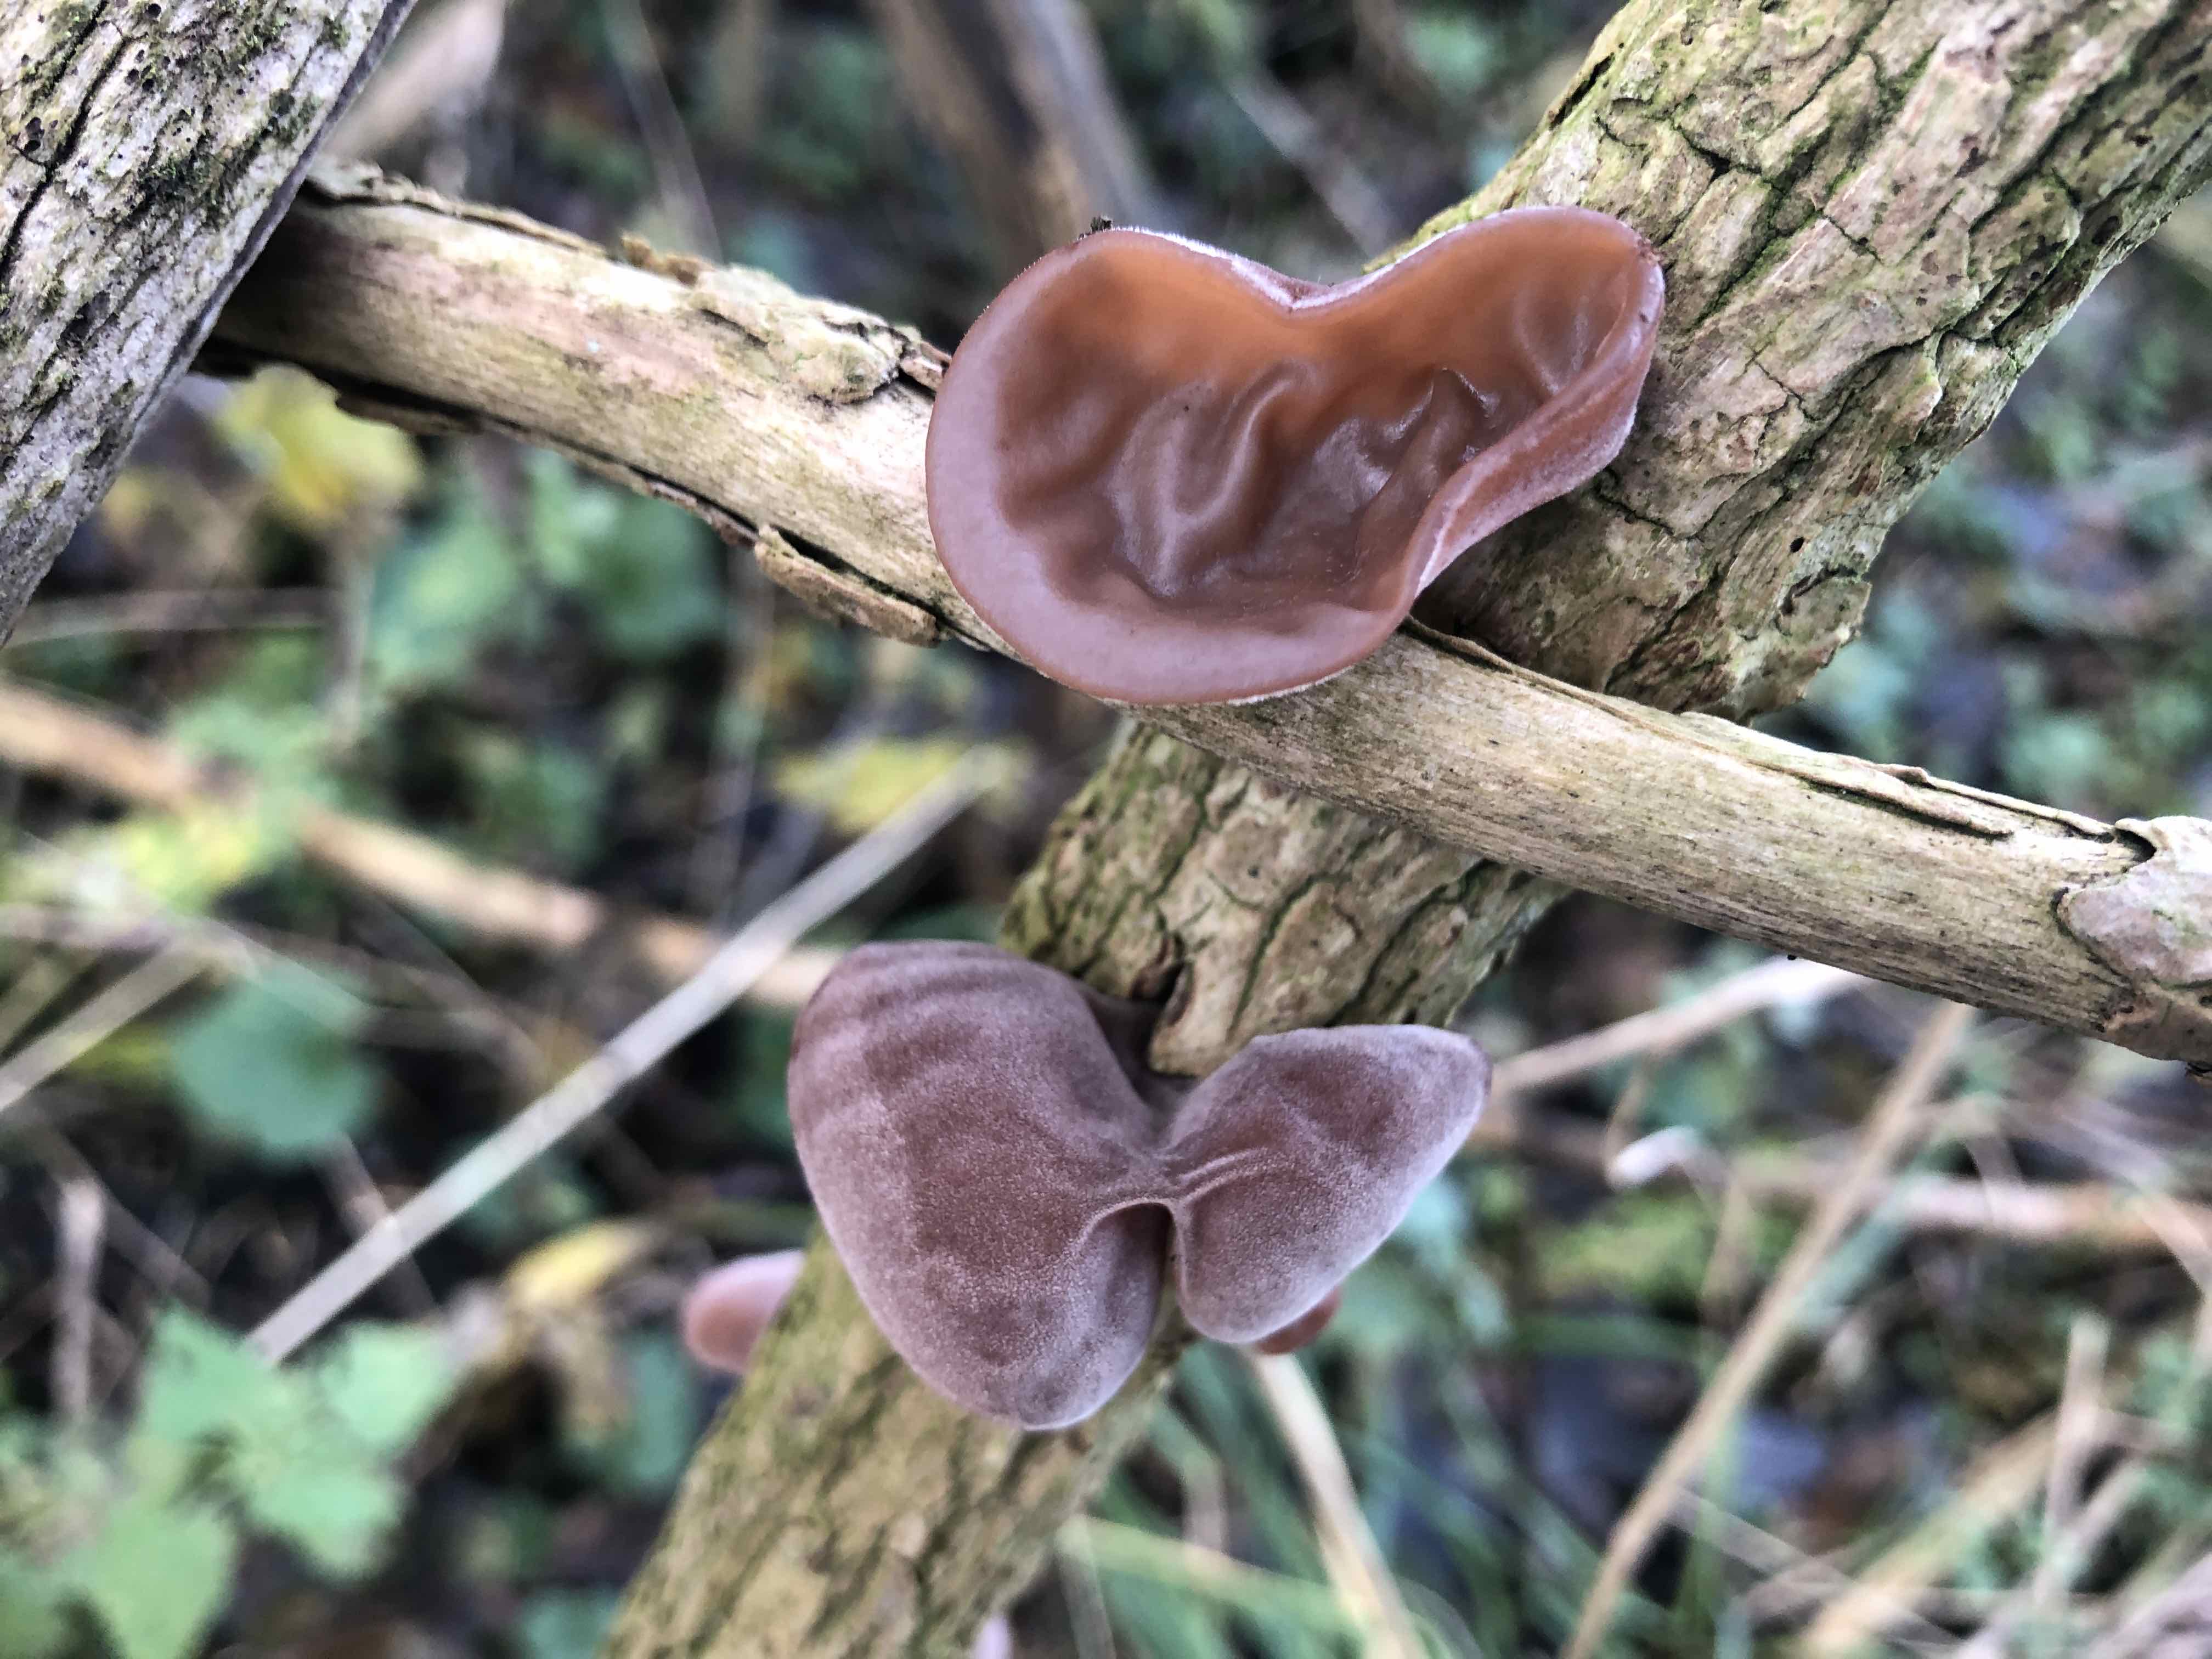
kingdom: Fungi
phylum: Basidiomycota
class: Agaricomycetes
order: Auriculariales
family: Auriculariaceae
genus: Auricularia
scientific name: Auricularia auricula-judae
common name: almindelig judasøre
